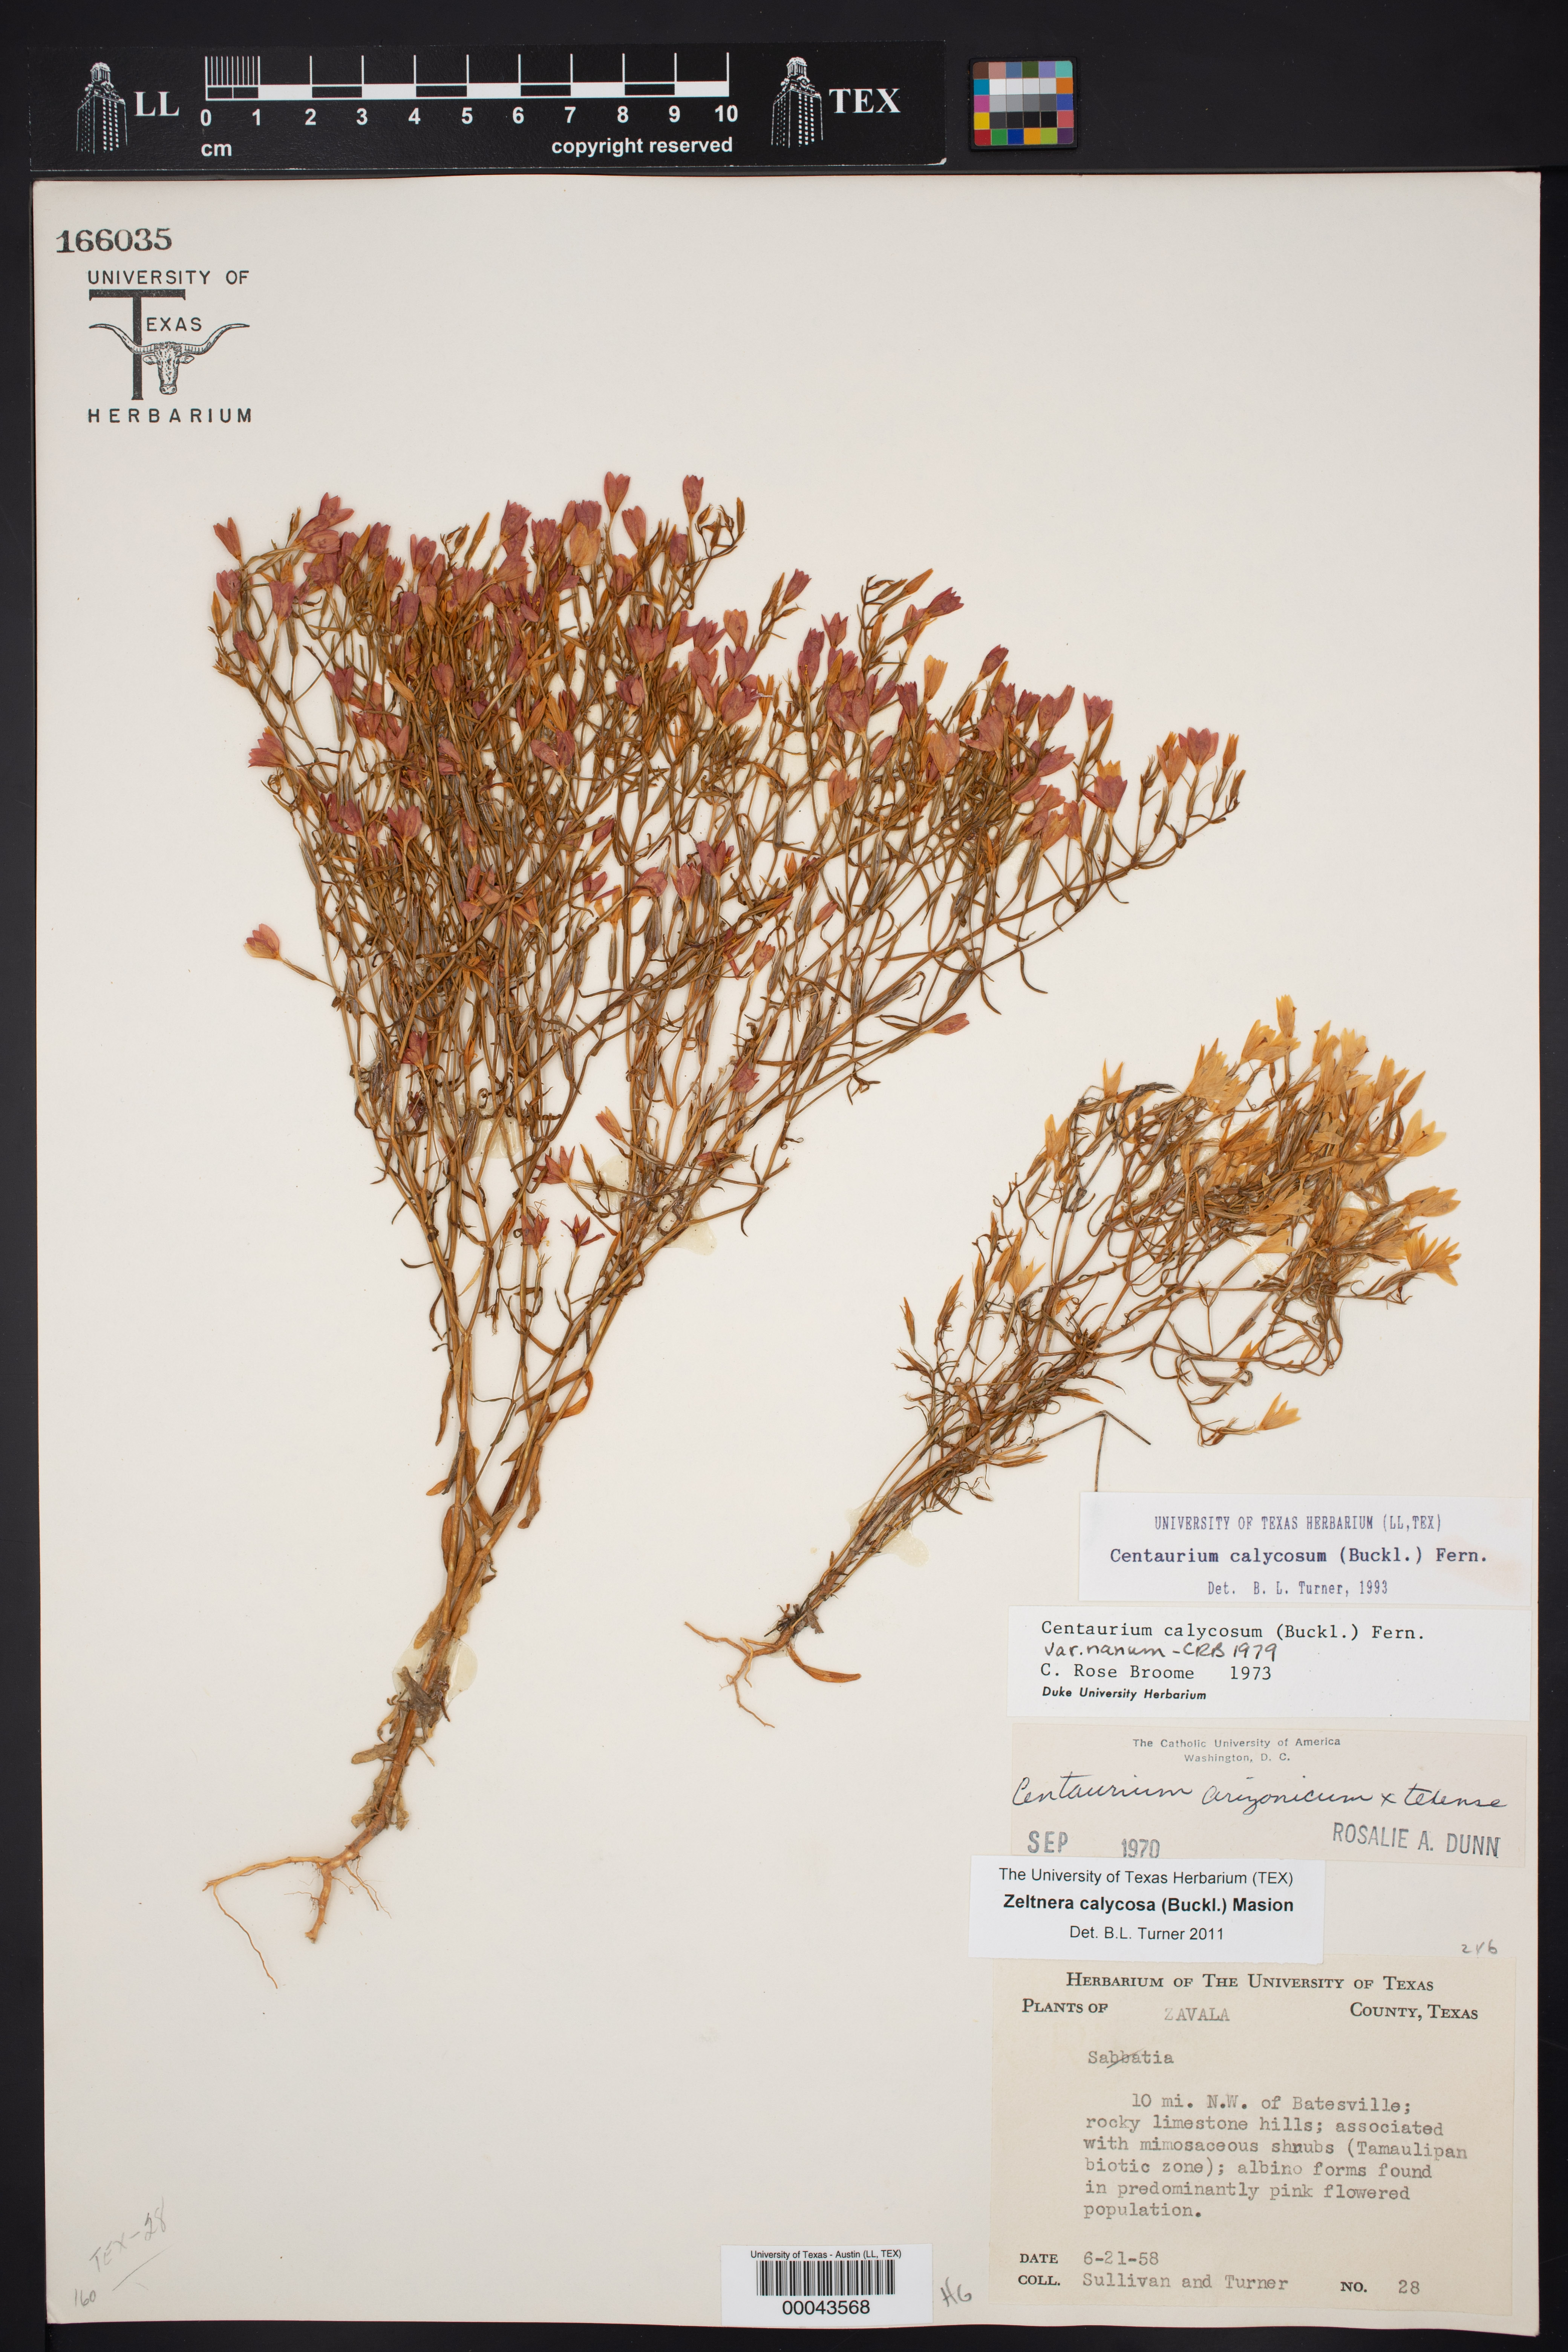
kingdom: Plantae
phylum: Tracheophyta
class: Magnoliopsida
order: Gentianales
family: Gentianaceae
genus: Zeltnera
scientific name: Zeltnera calycosa
